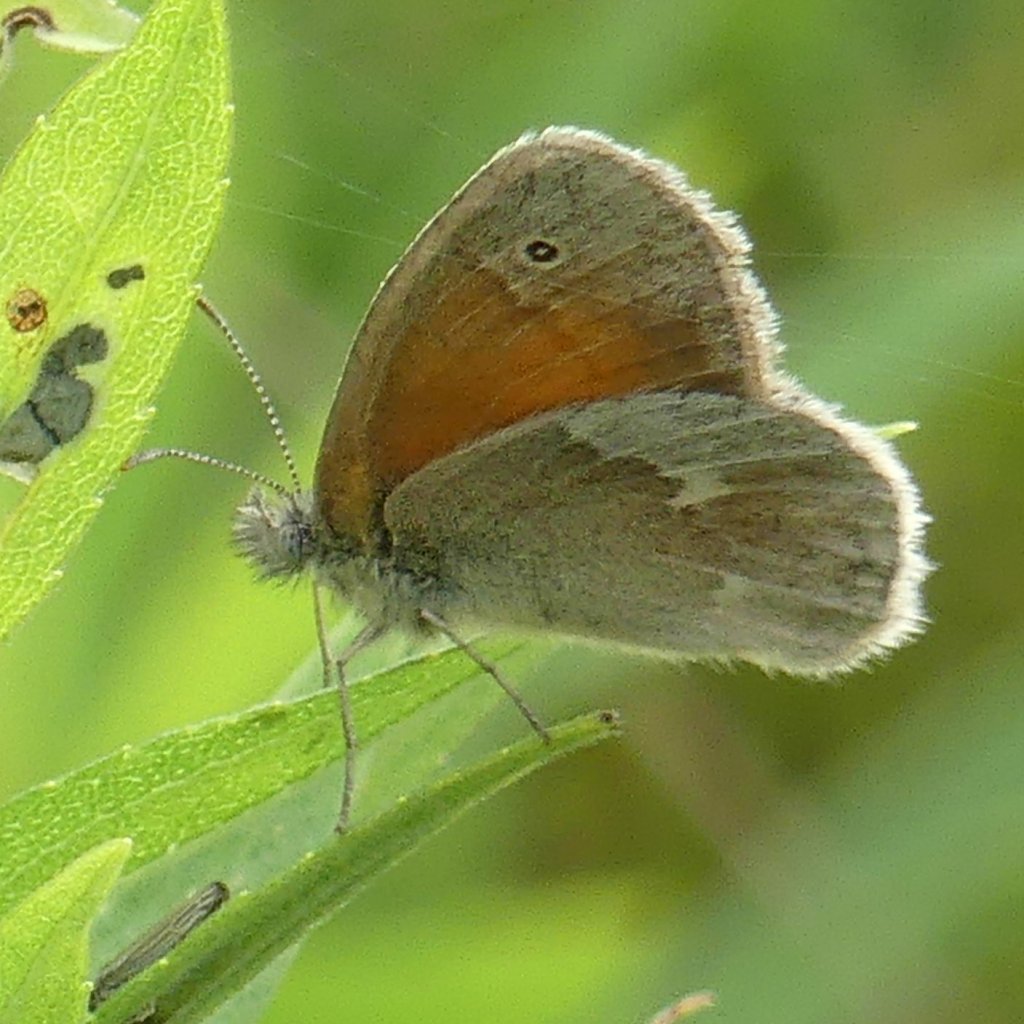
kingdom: Animalia
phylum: Arthropoda
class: Insecta
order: Lepidoptera
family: Nymphalidae
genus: Coenonympha
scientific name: Coenonympha tullia
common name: Large Heath
